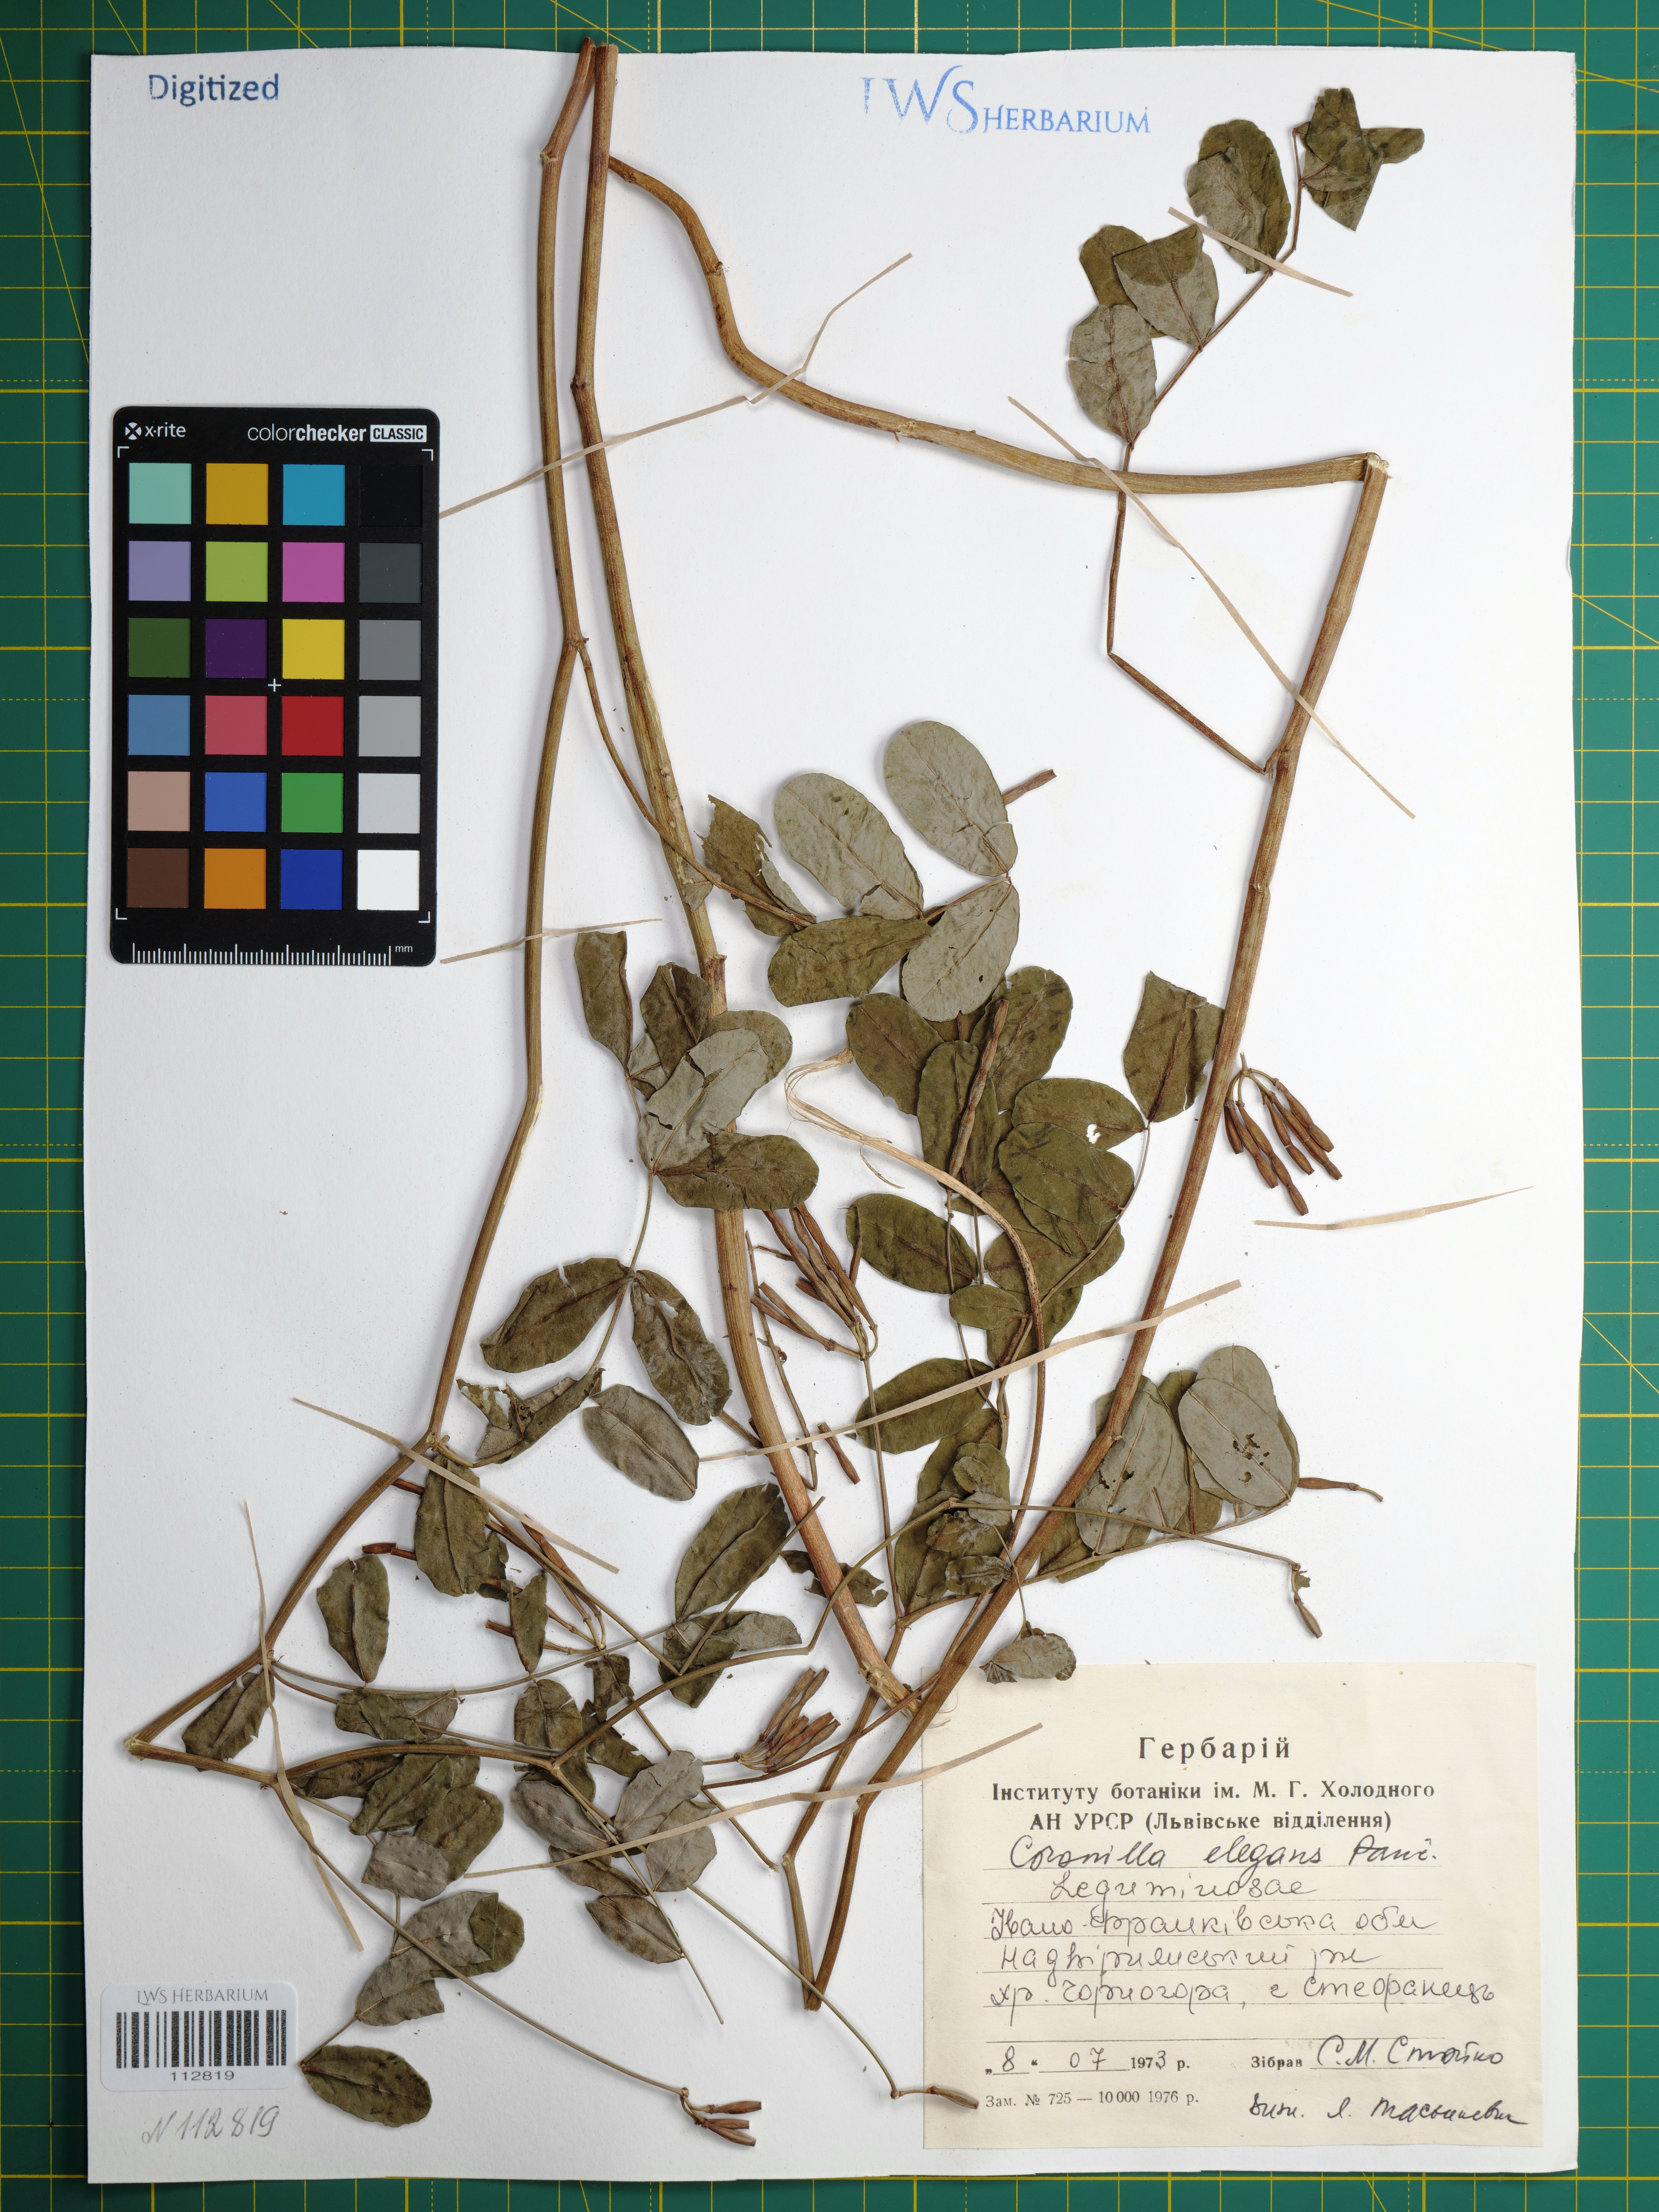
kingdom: Plantae
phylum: Tracheophyta
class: Magnoliopsida
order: Fabales
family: Fabaceae
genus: Coronilla
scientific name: Coronilla elegans
